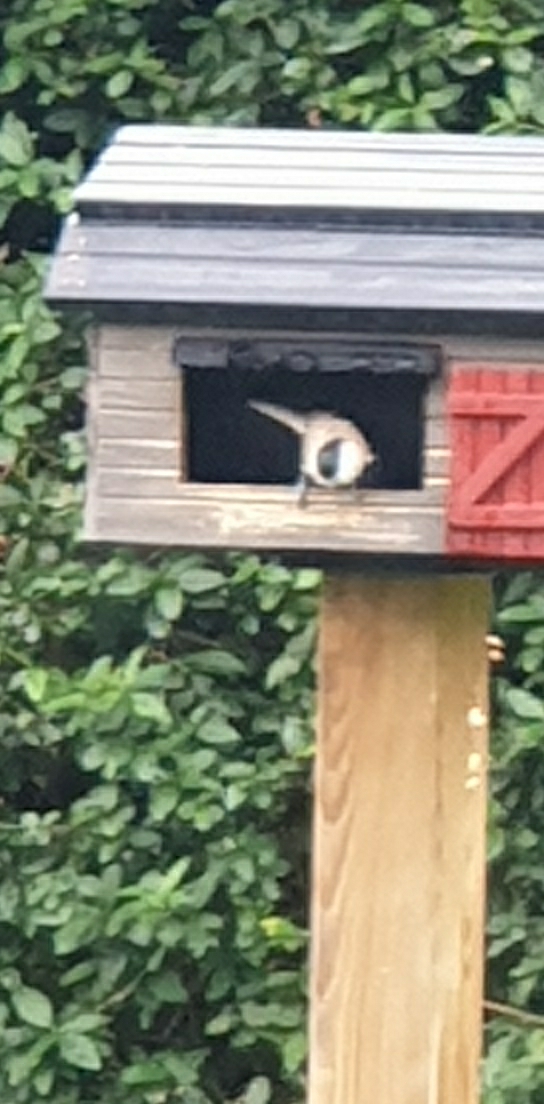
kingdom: Animalia
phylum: Chordata
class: Aves
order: Passeriformes
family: Paridae
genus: Poecile
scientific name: Poecile palustris
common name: Sumpmejse
